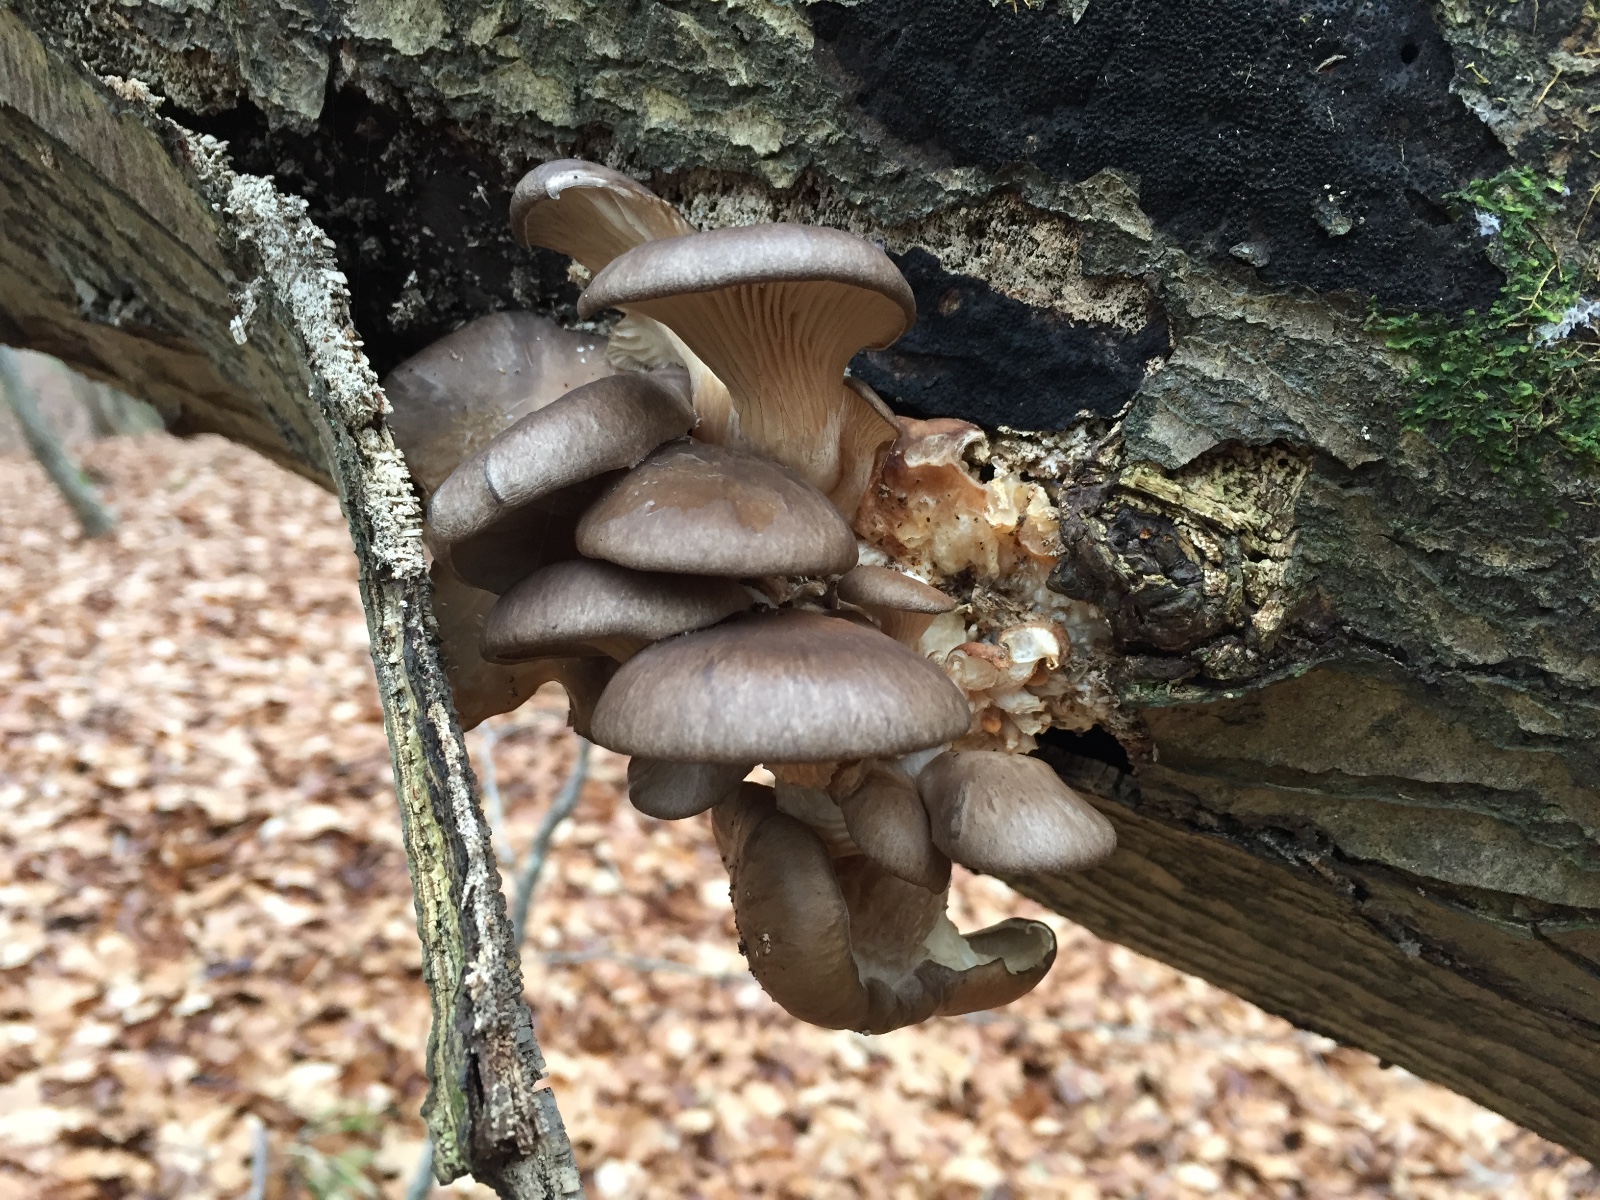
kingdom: Fungi
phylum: Basidiomycota
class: Agaricomycetes
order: Agaricales
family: Pleurotaceae
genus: Pleurotus
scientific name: Pleurotus ostreatus
